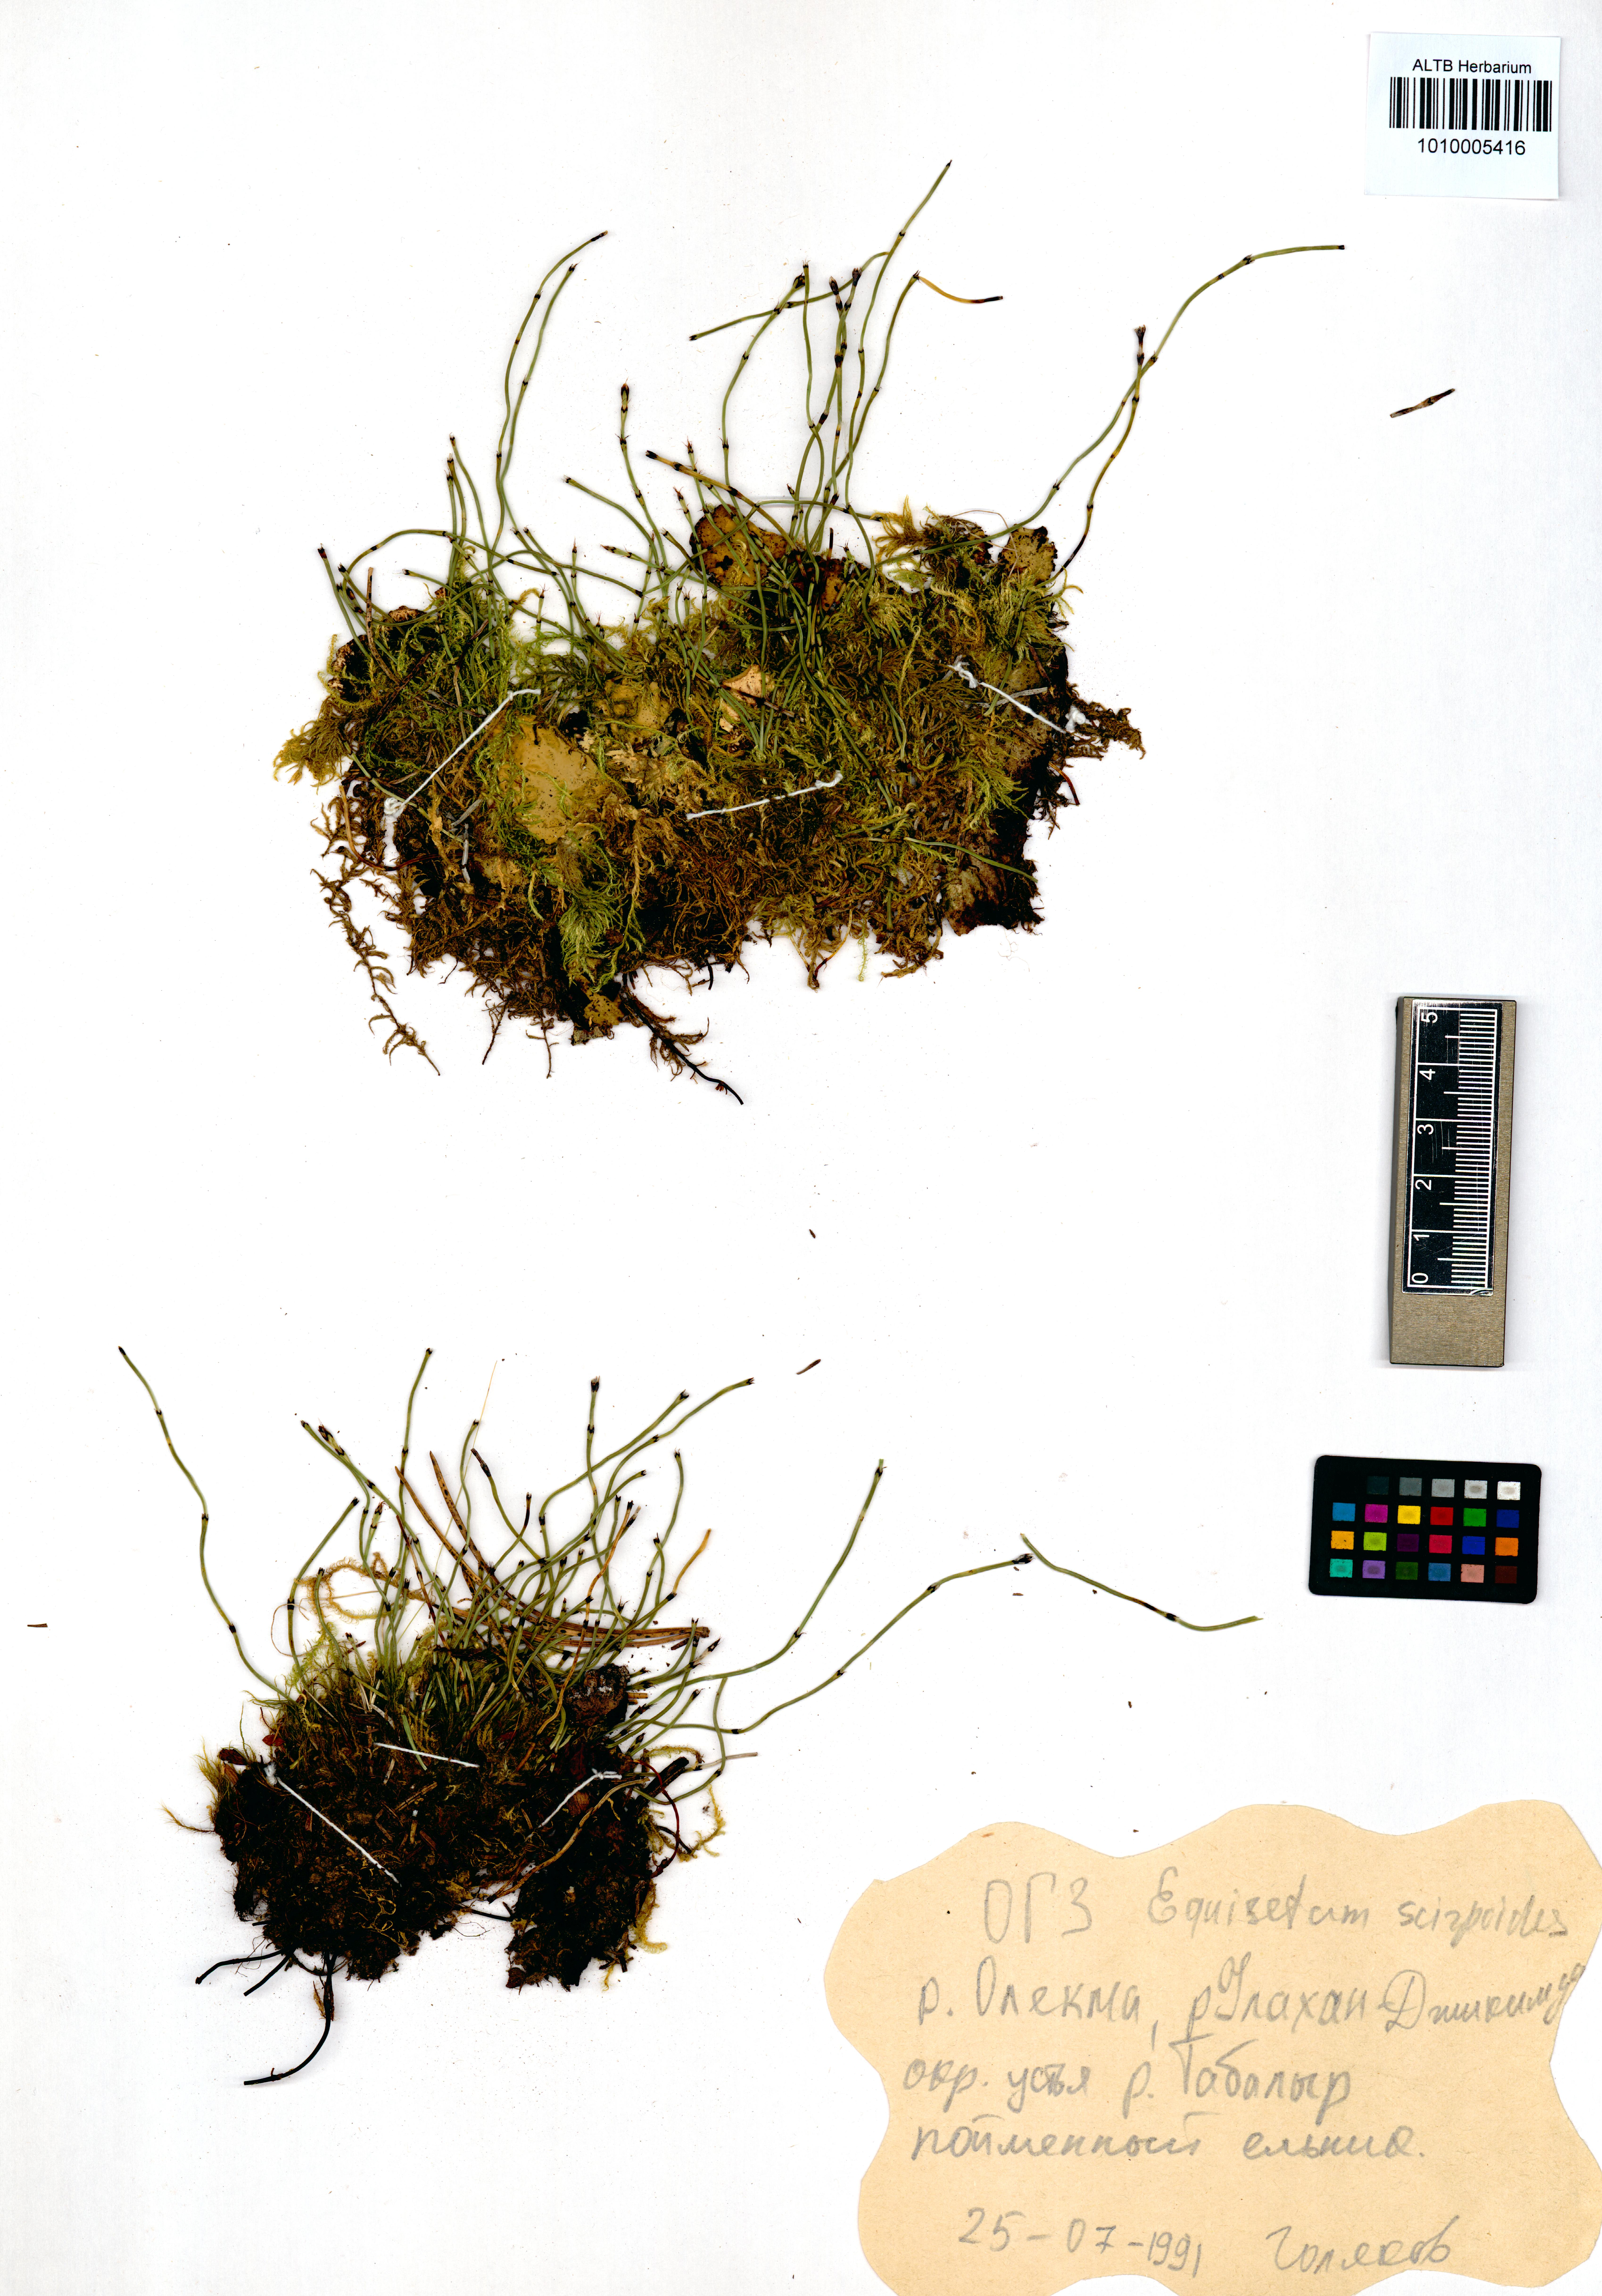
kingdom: Plantae
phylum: Tracheophyta
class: Polypodiopsida
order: Equisetales
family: Equisetaceae
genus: Equisetum
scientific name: Equisetum scirpoides
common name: Delicate horsetail
